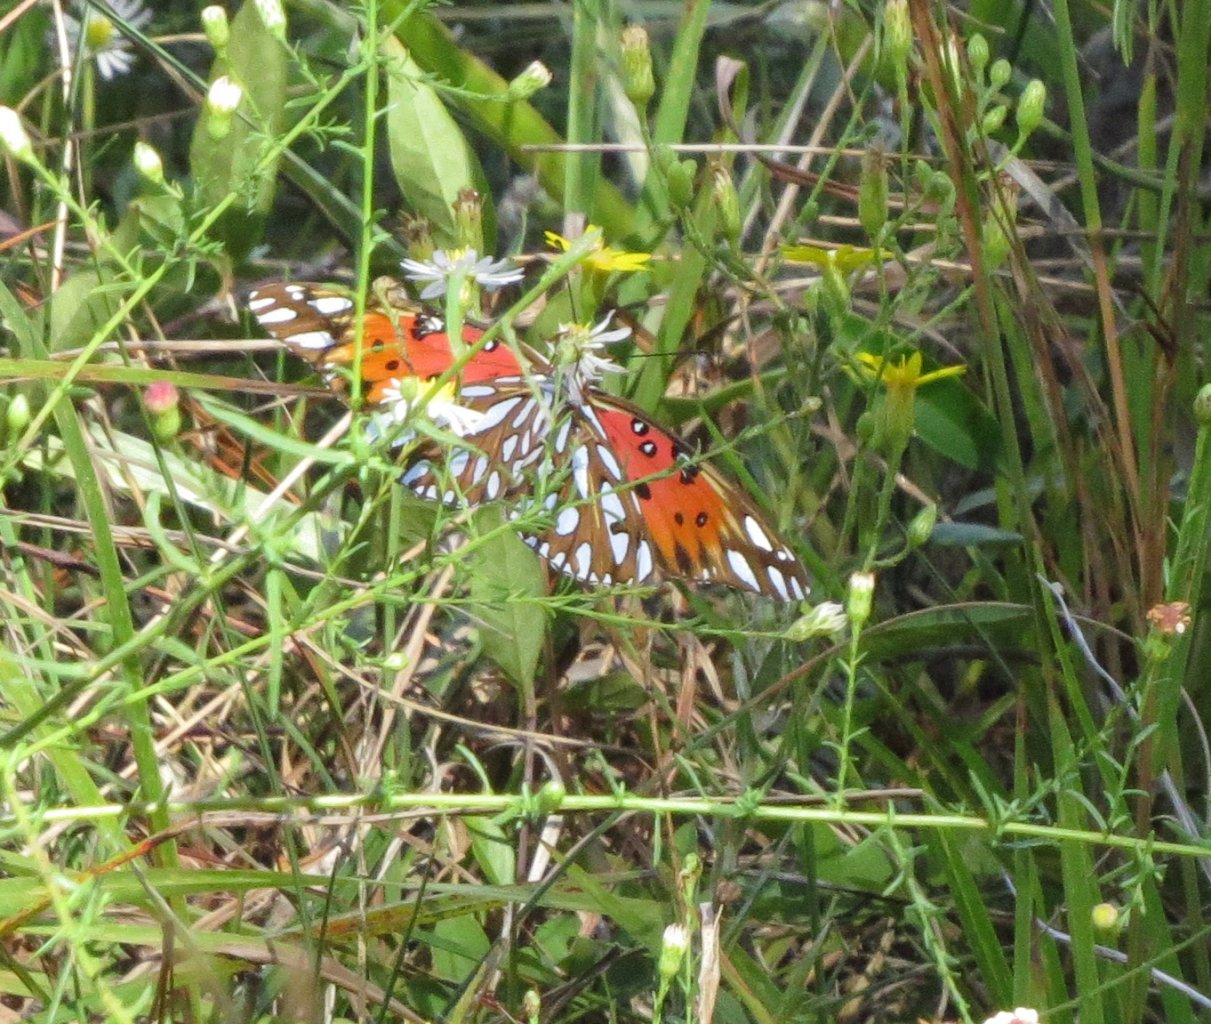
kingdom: Animalia
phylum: Arthropoda
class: Insecta
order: Lepidoptera
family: Nymphalidae
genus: Dione
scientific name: Dione vanillae
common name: Gulf Fritillary
